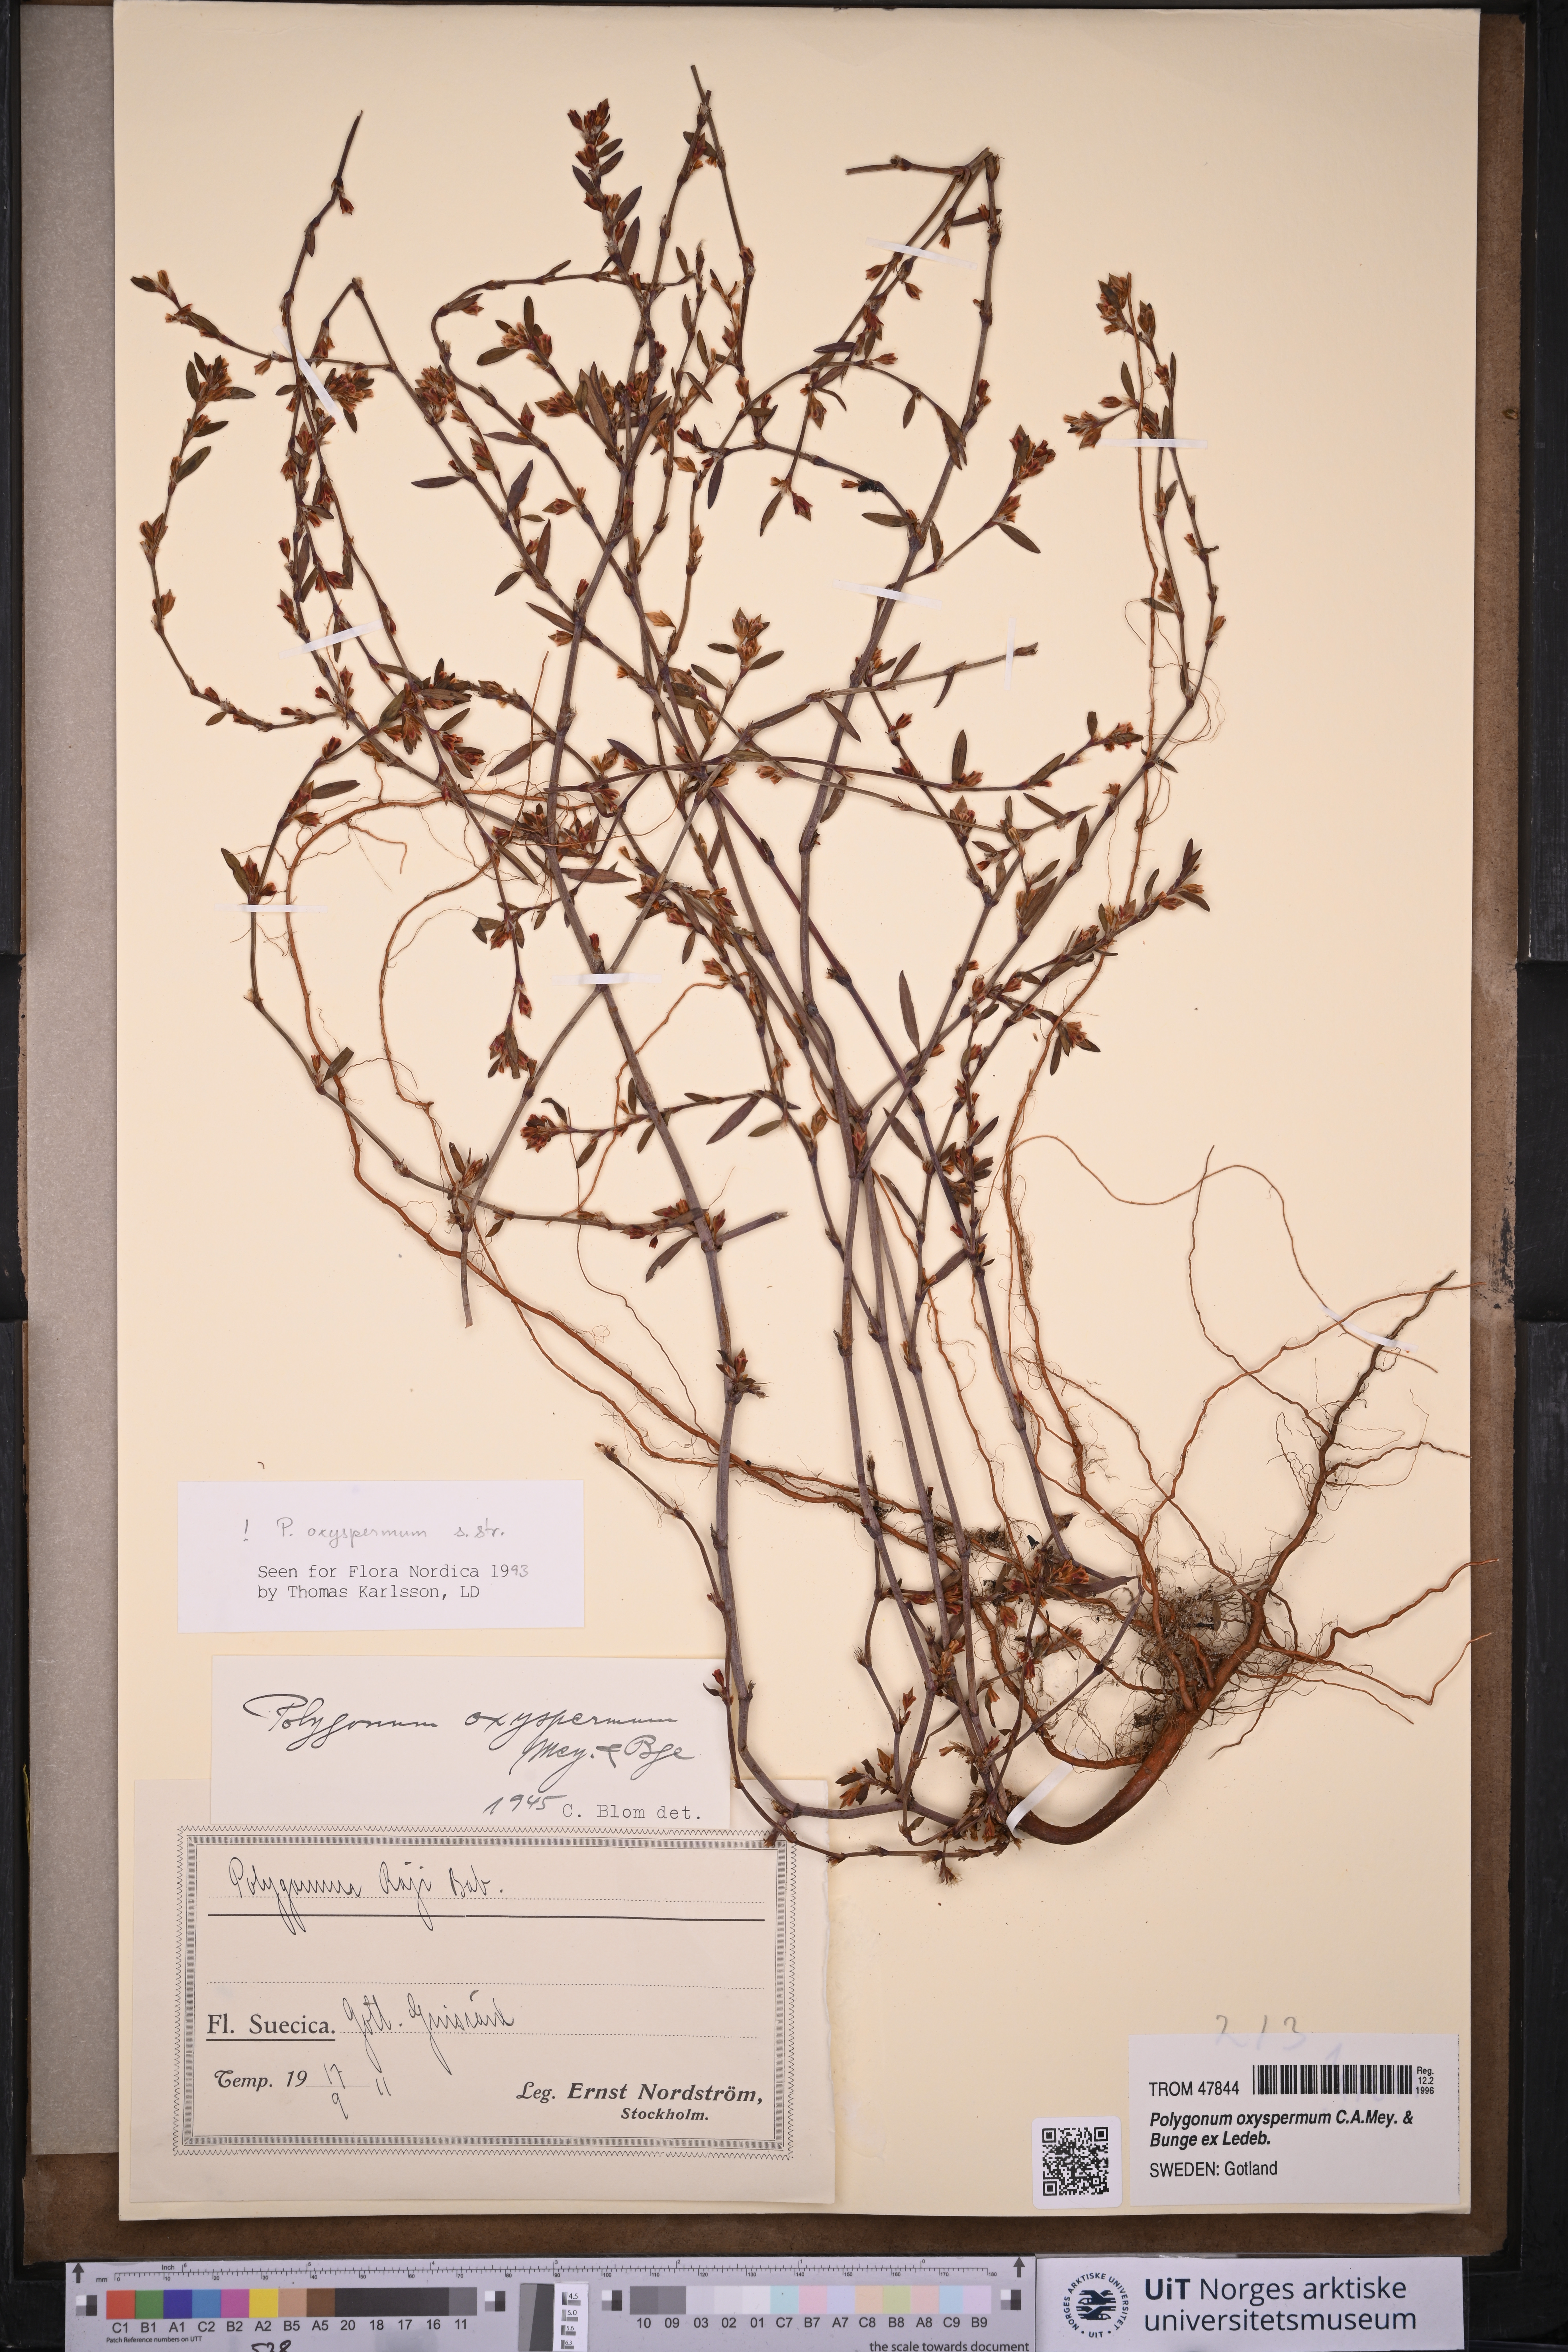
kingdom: Plantae
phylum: Tracheophyta
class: Magnoliopsida
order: Caryophyllales
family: Polygonaceae
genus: Polygonum
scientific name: Polygonum oxyspermum
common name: Ray's knotgrass
